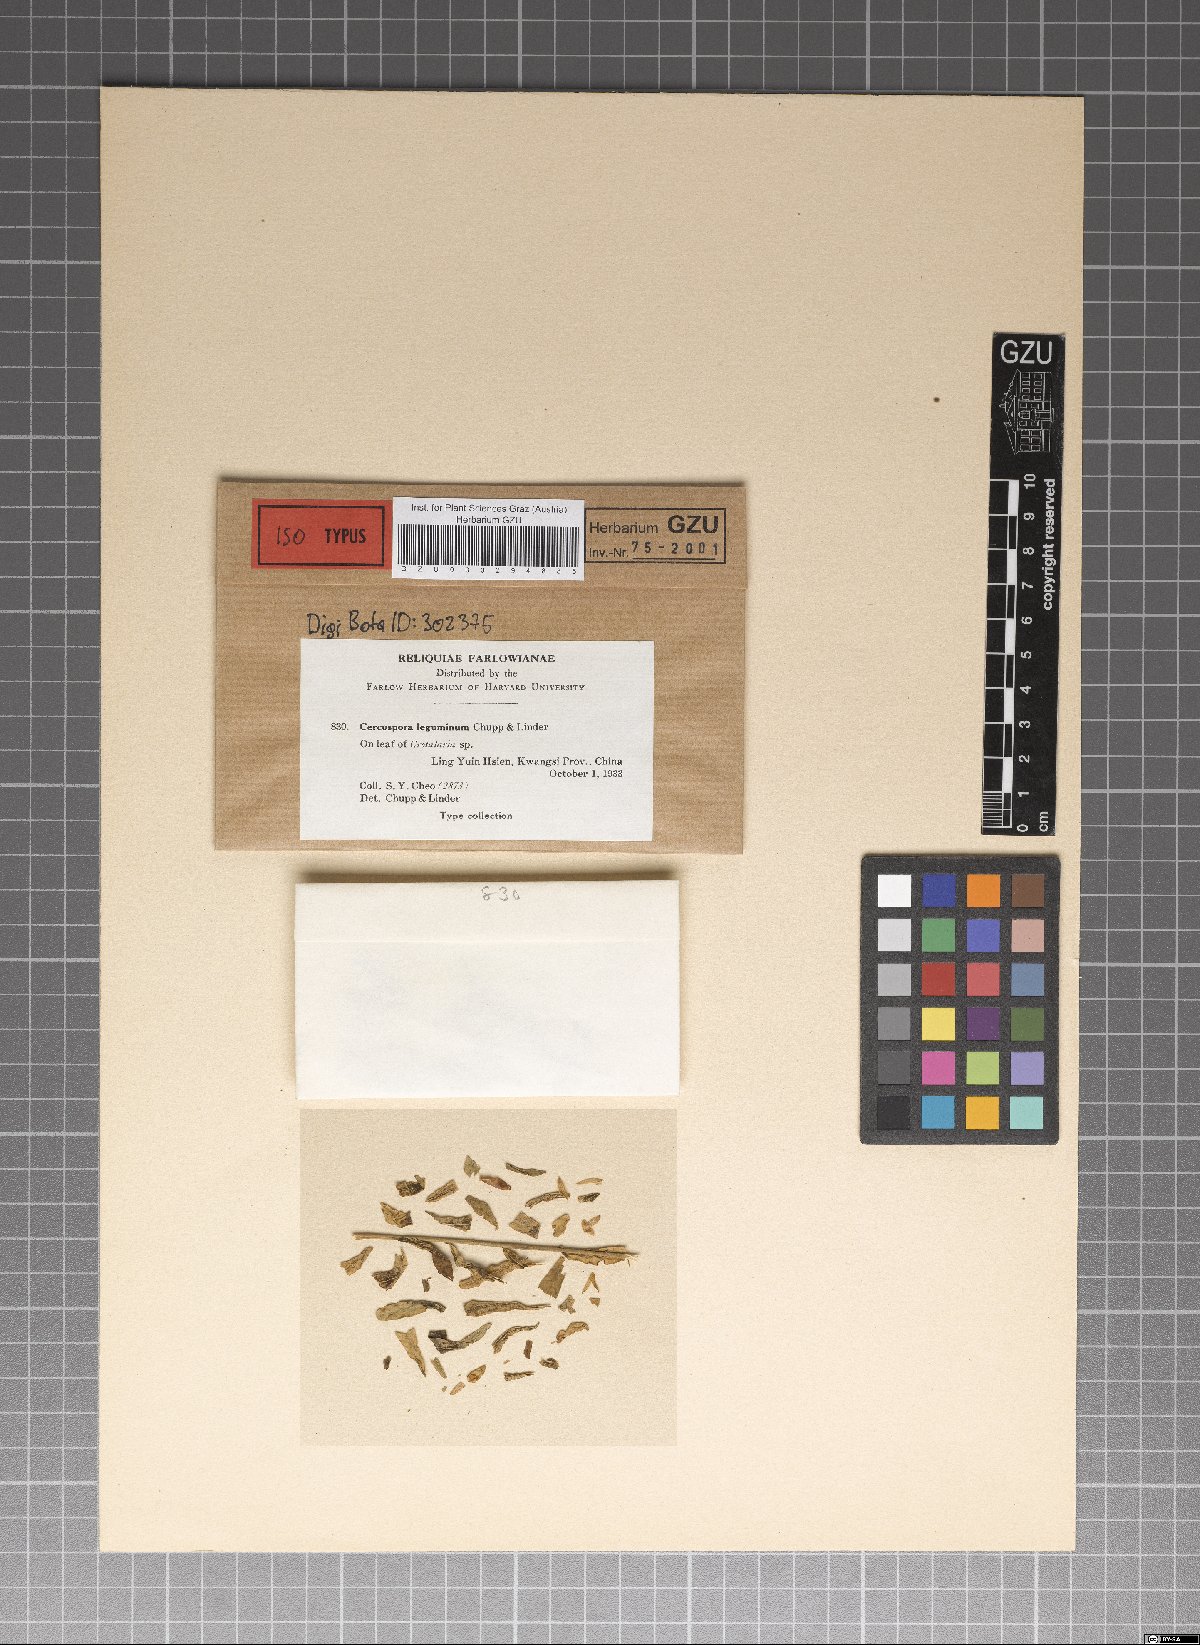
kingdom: Fungi
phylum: Ascomycota
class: Dothideomycetes
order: Mycosphaerellales
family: Mycosphaerellaceae
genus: Pseudocercospora
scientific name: Pseudocercospora leguminum
